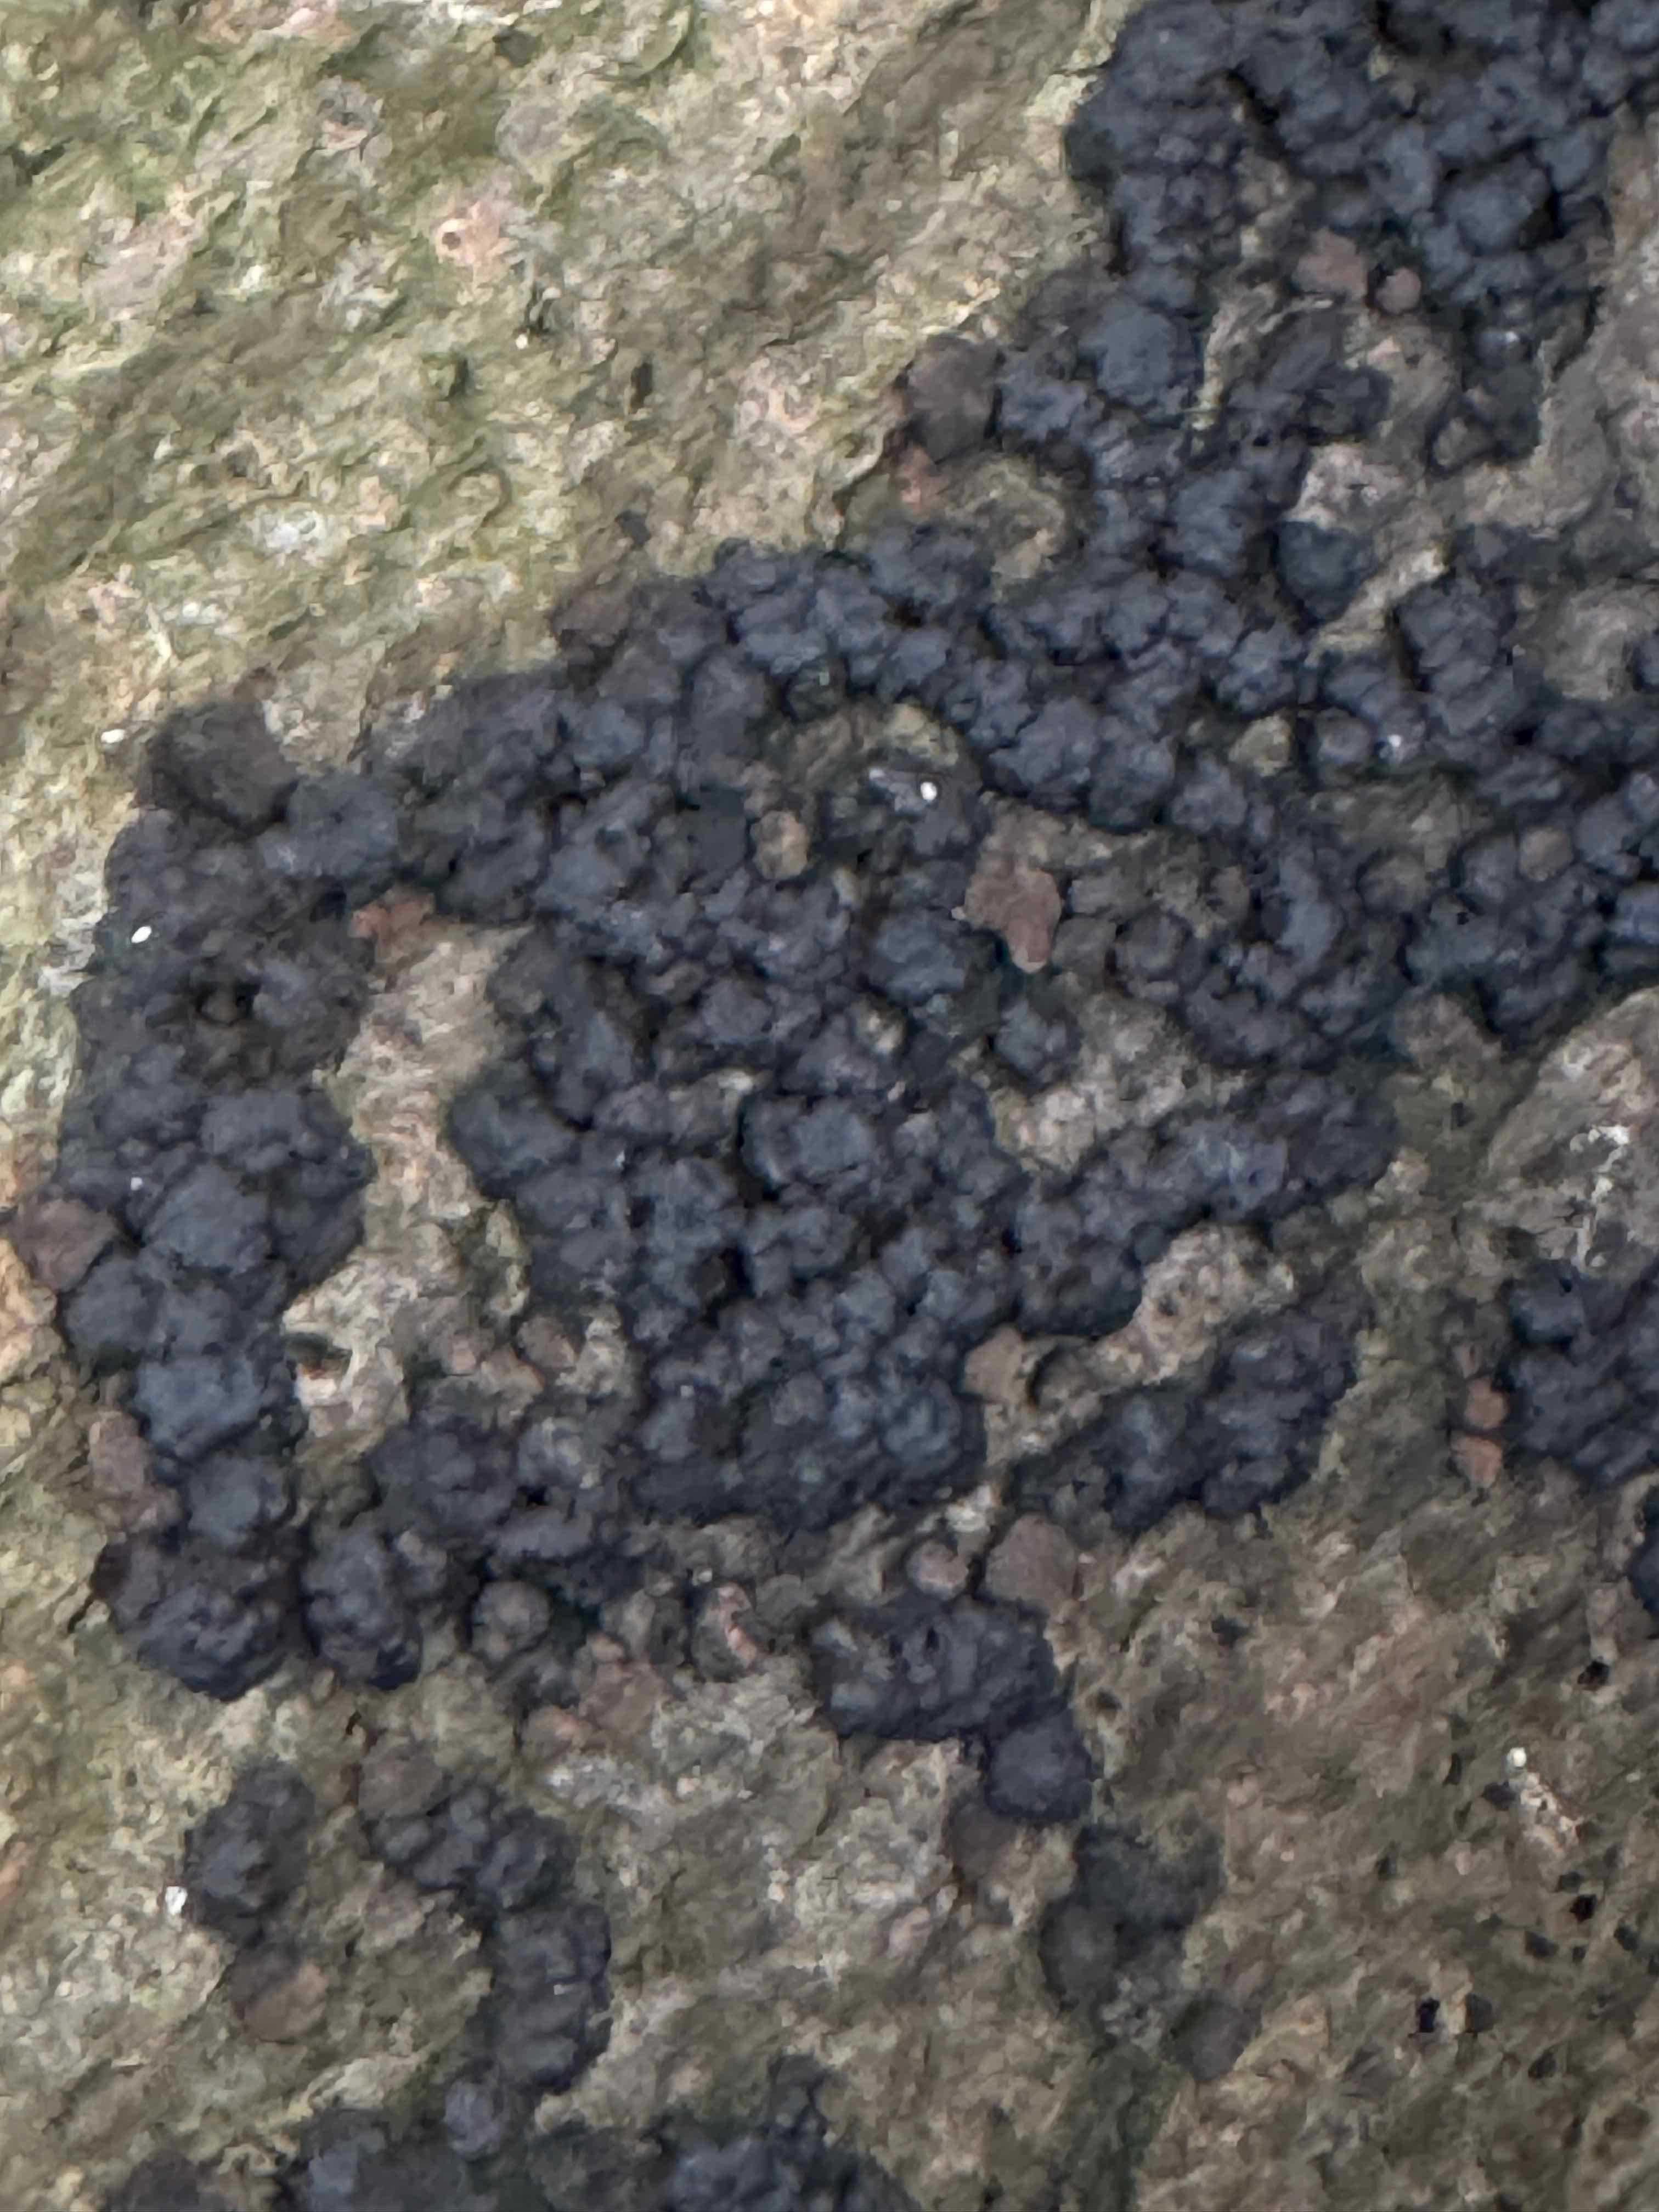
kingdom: Fungi
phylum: Ascomycota
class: Sordariomycetes
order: Xylariales
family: Hypoxylaceae
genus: Jackrogersella
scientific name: Jackrogersella cohaerens
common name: sammenflydende kulbær
